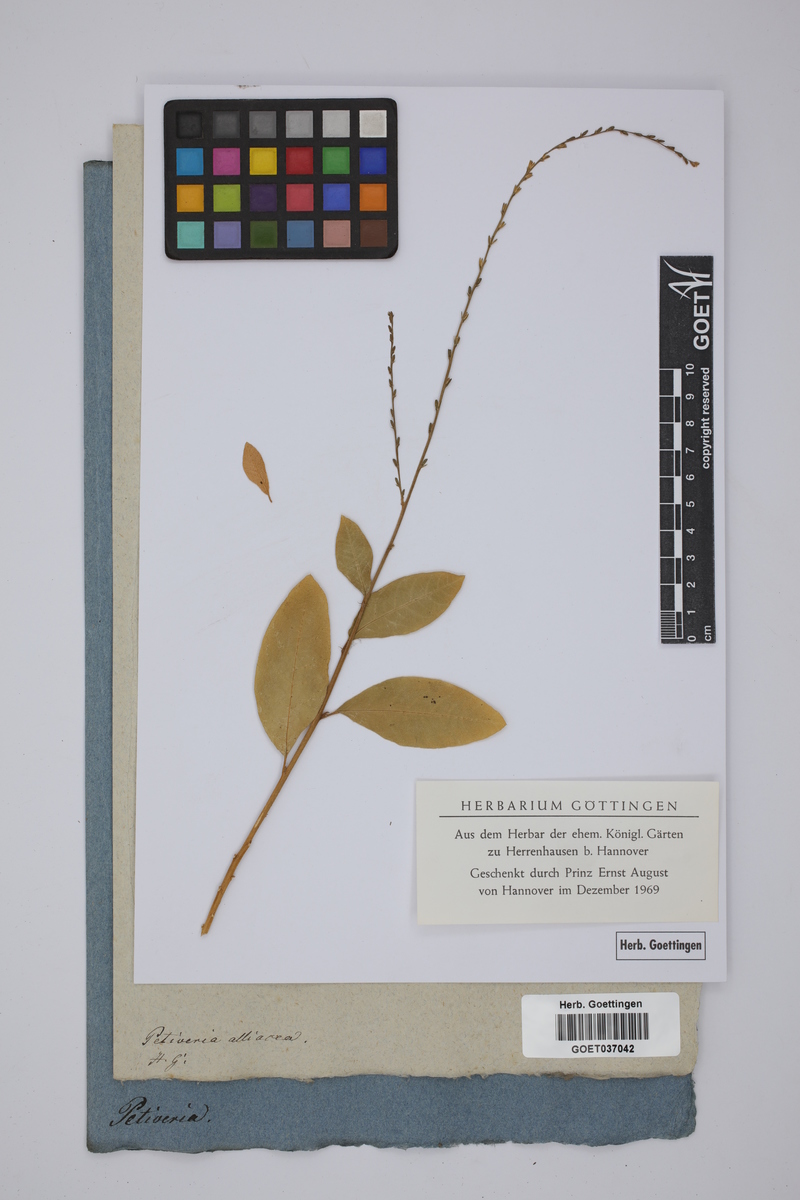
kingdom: Plantae
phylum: Tracheophyta
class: Magnoliopsida
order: Caryophyllales
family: Phytolaccaceae
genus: Petiveria
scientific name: Petiveria alliacea
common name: Garlicweed
